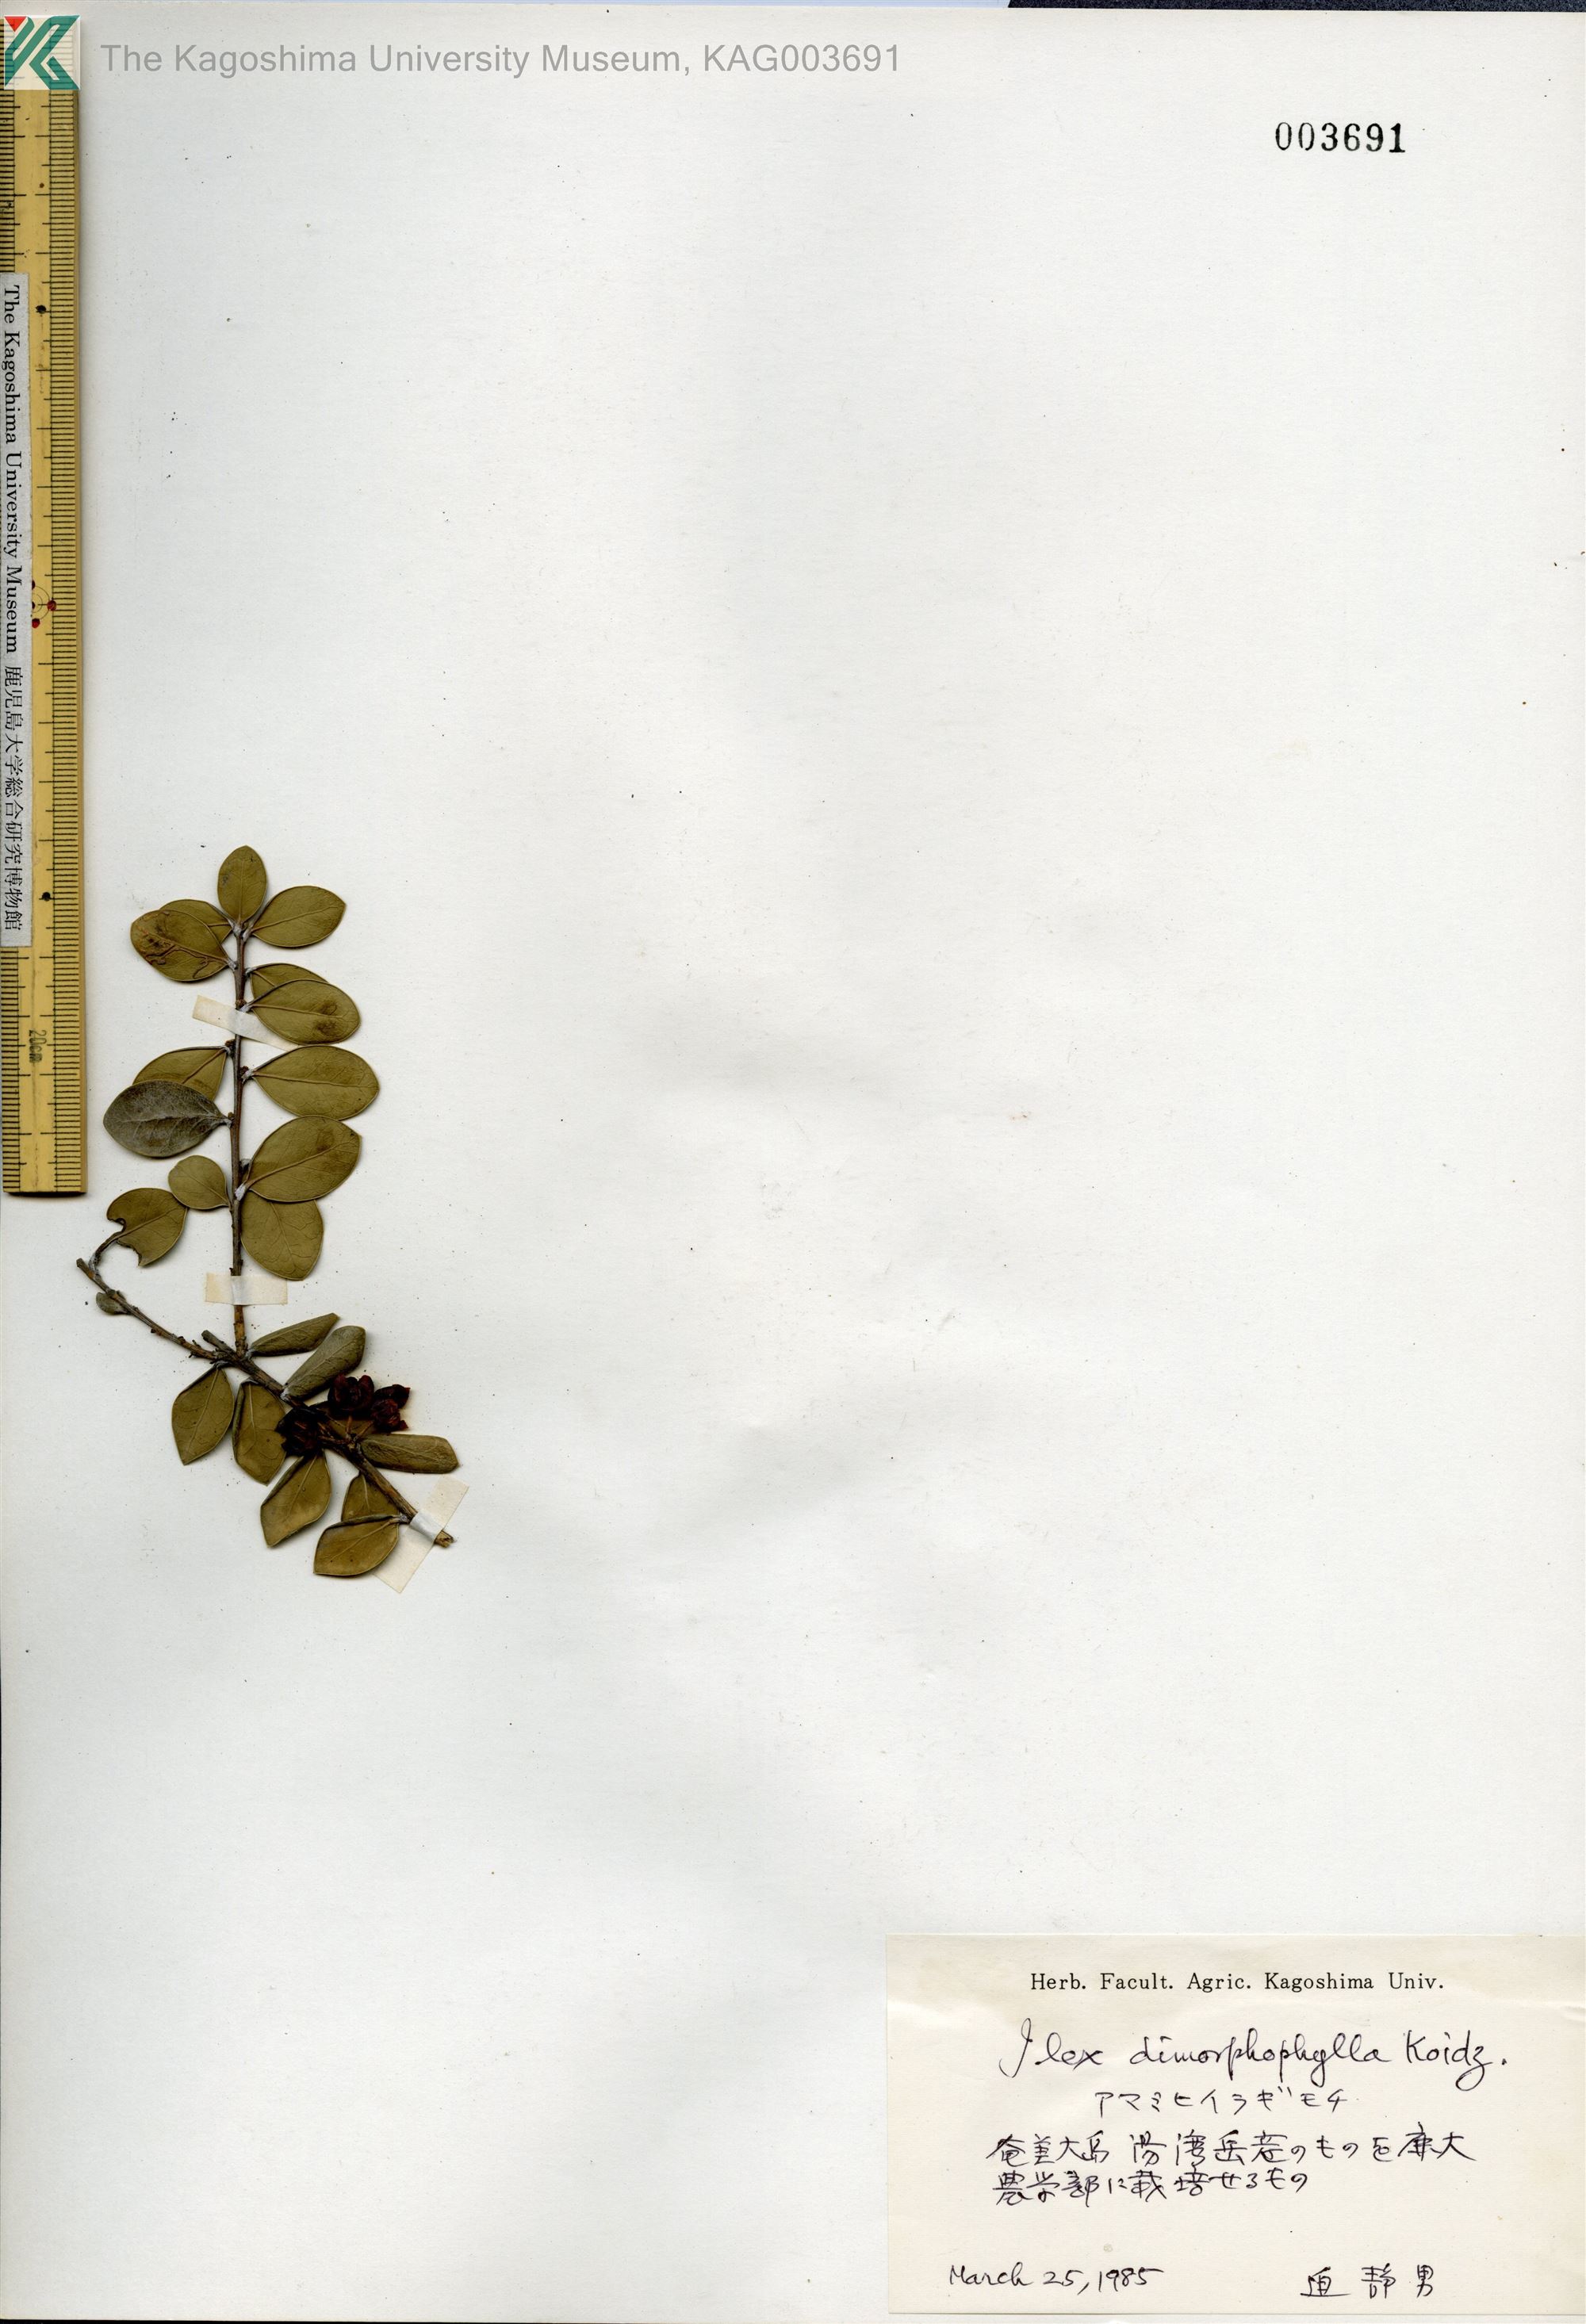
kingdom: Plantae
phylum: Tracheophyta
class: Magnoliopsida
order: Aquifoliales
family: Aquifoliaceae
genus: Ilex
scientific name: Ilex
